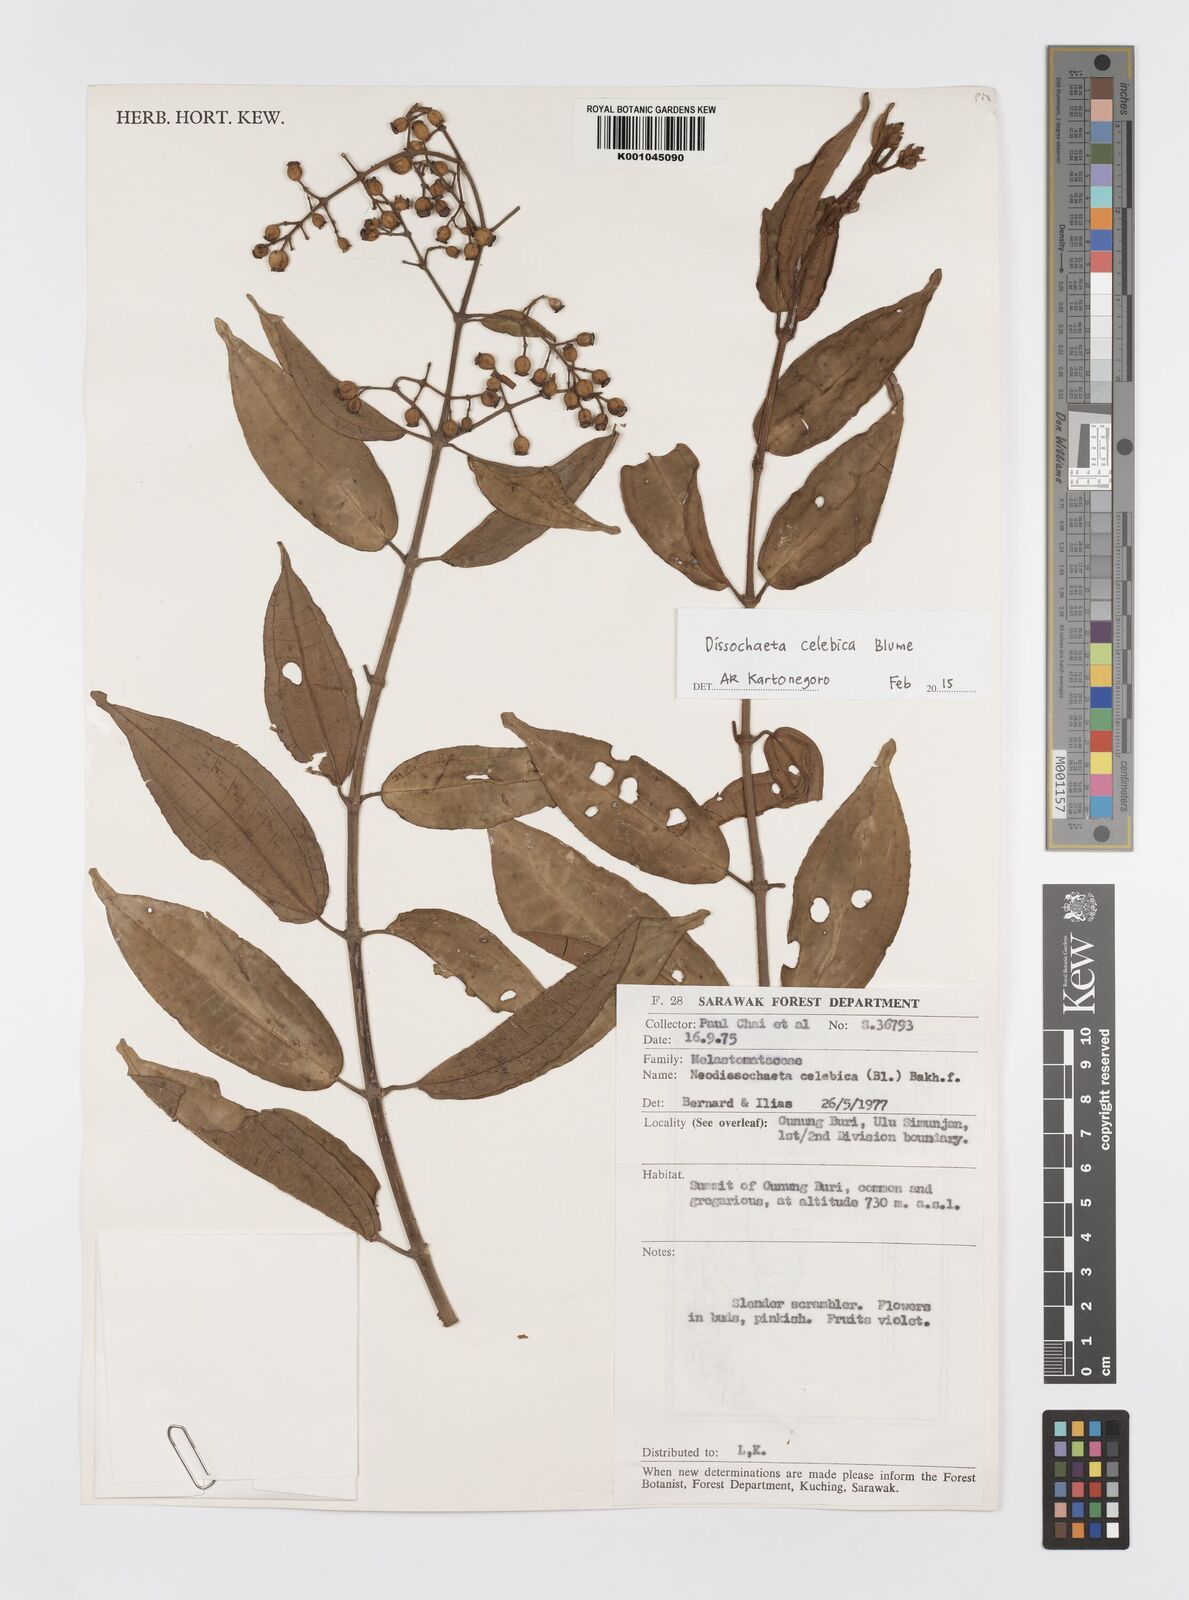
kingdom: Plantae
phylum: Tracheophyta
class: Magnoliopsida
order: Myrtales
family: Melastomataceae
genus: Dissochaeta
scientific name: Dissochaeta celebica
